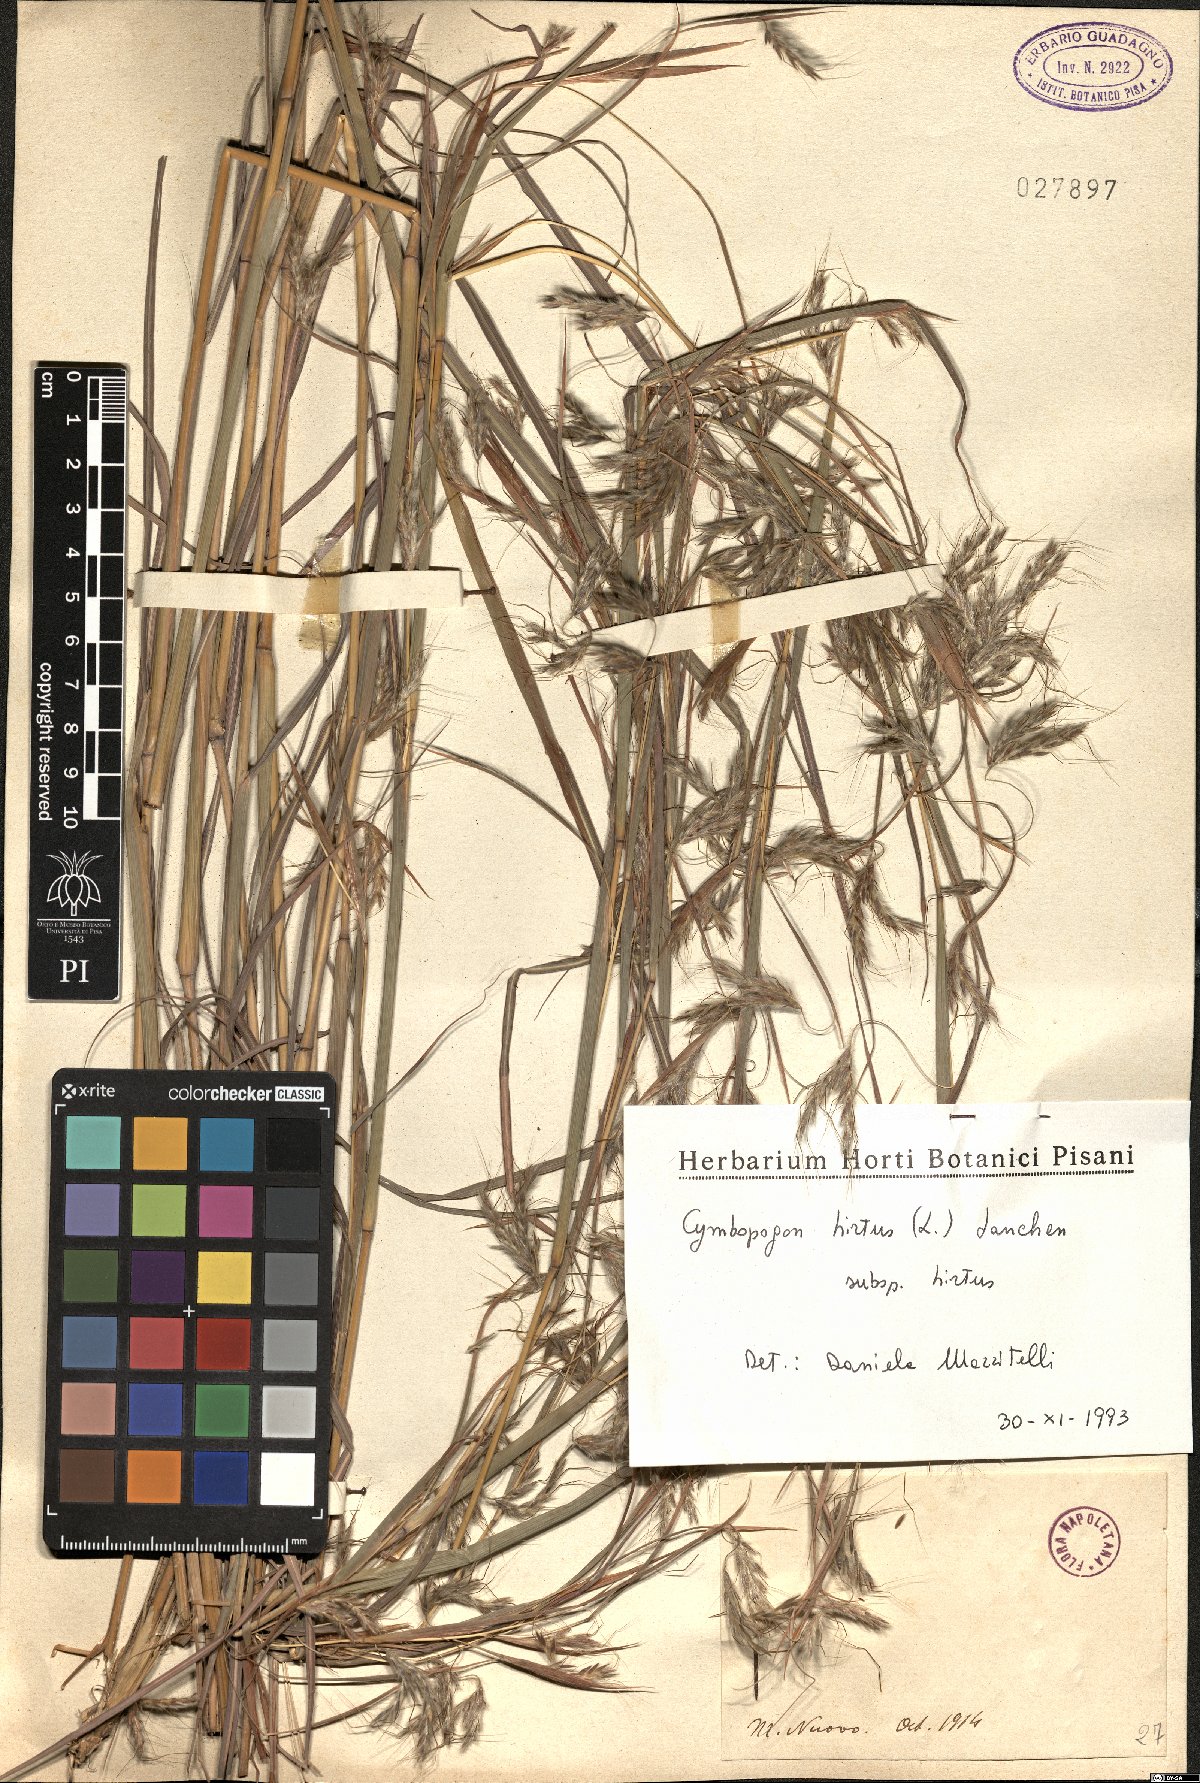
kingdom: Plantae
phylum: Tracheophyta
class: Liliopsida
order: Poales
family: Poaceae
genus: Cymbopogon
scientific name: Cymbopogon hirtus
